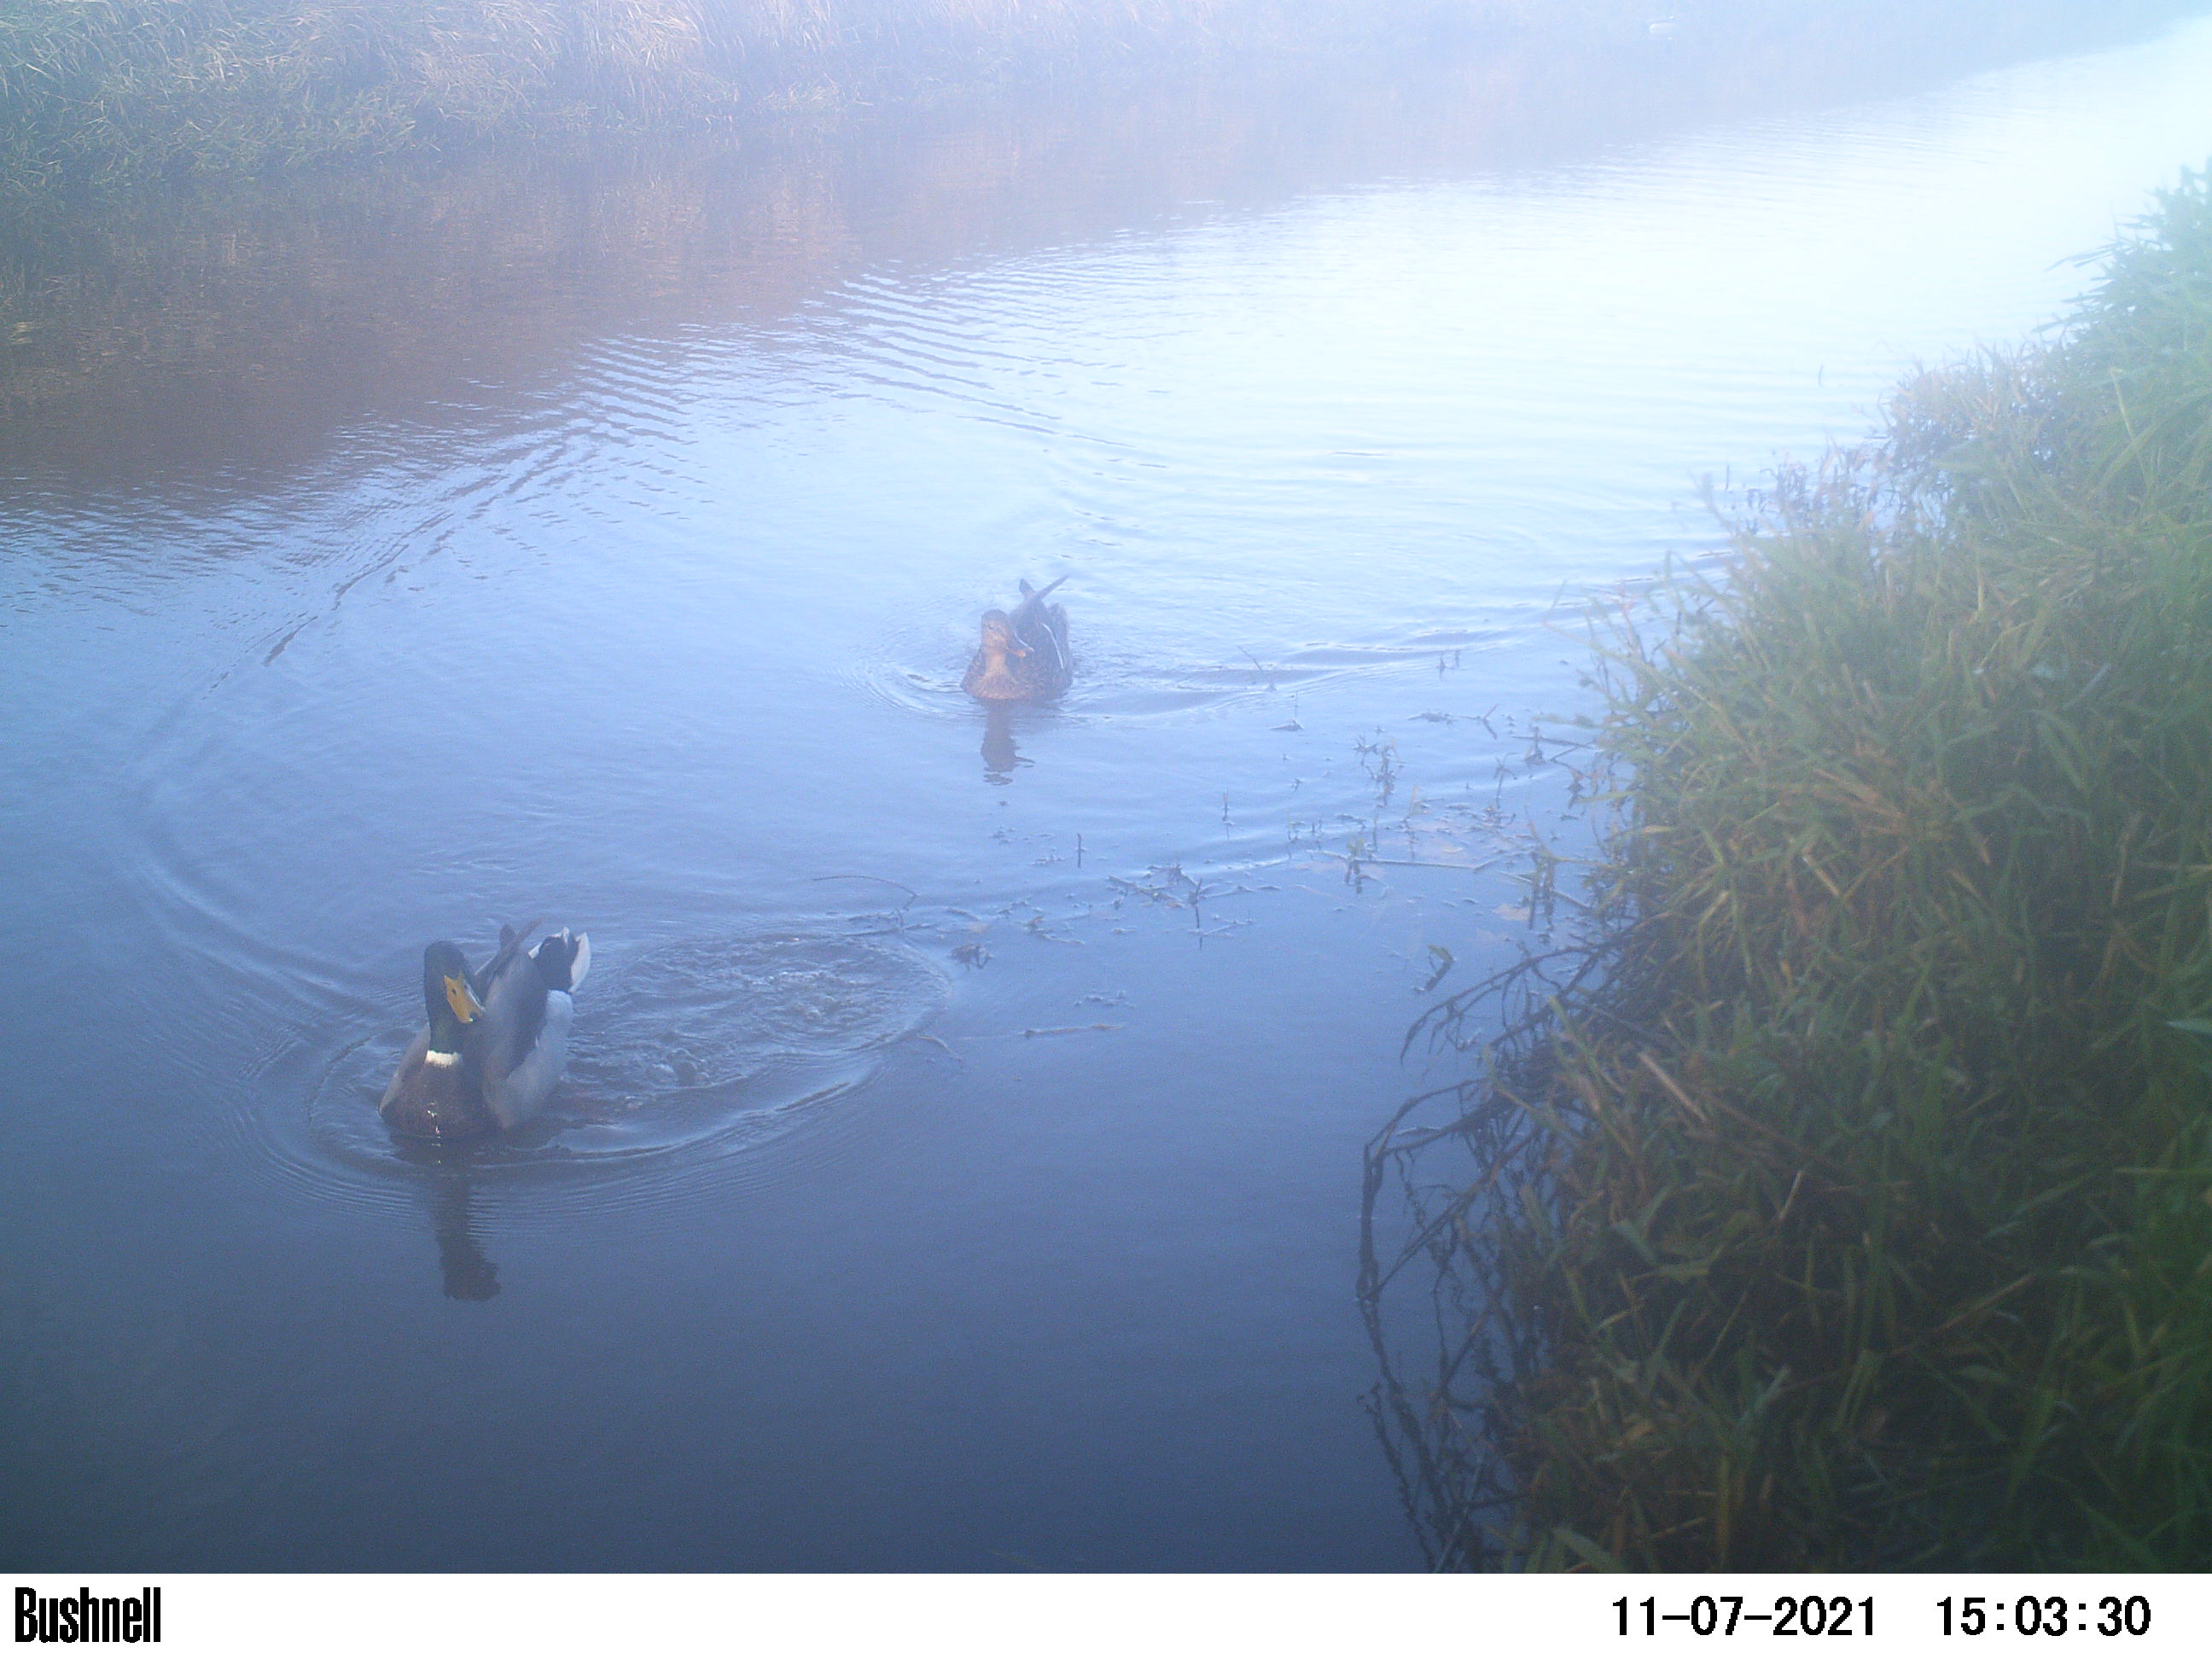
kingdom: Animalia
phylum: Chordata
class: Aves
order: Anseriformes
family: Anatidae
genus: Anas
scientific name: Anas
